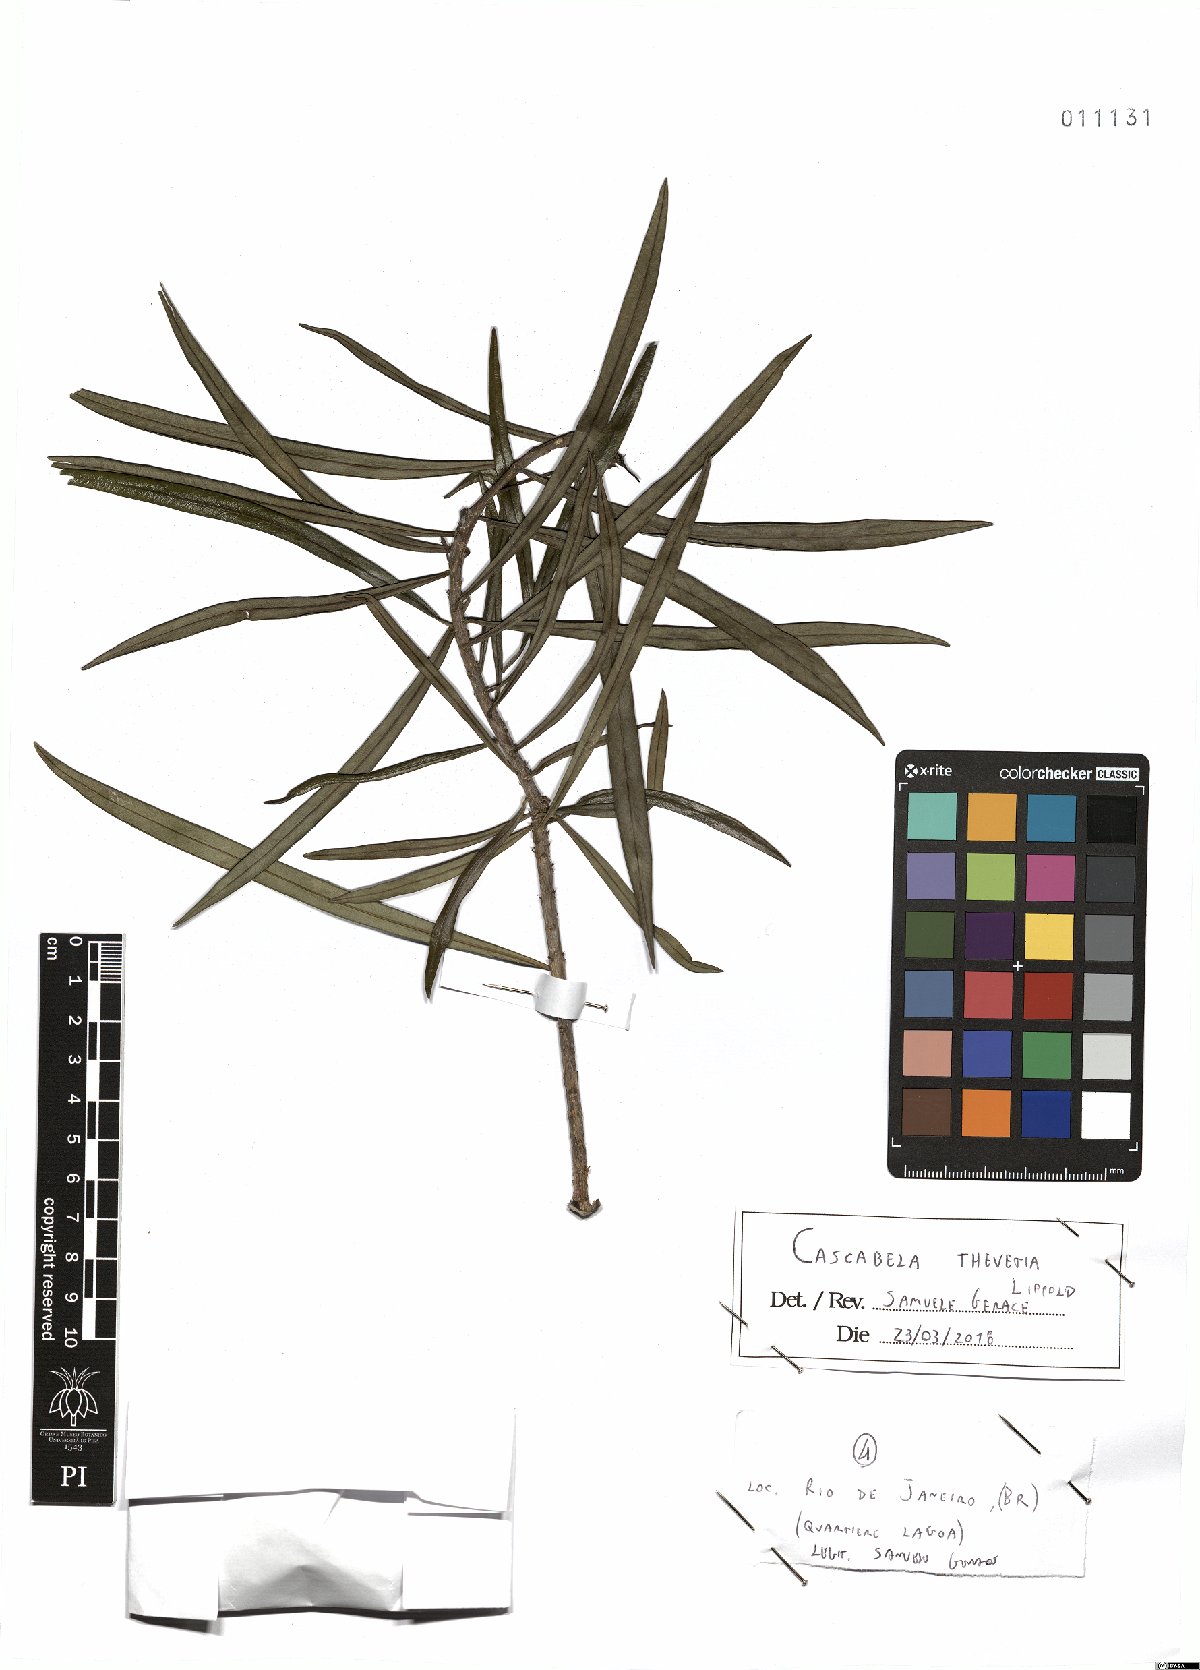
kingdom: Plantae
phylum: Tracheophyta
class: Magnoliopsida
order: Gentianales
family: Apocynaceae
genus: Cascabela
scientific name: Cascabela thevetia
